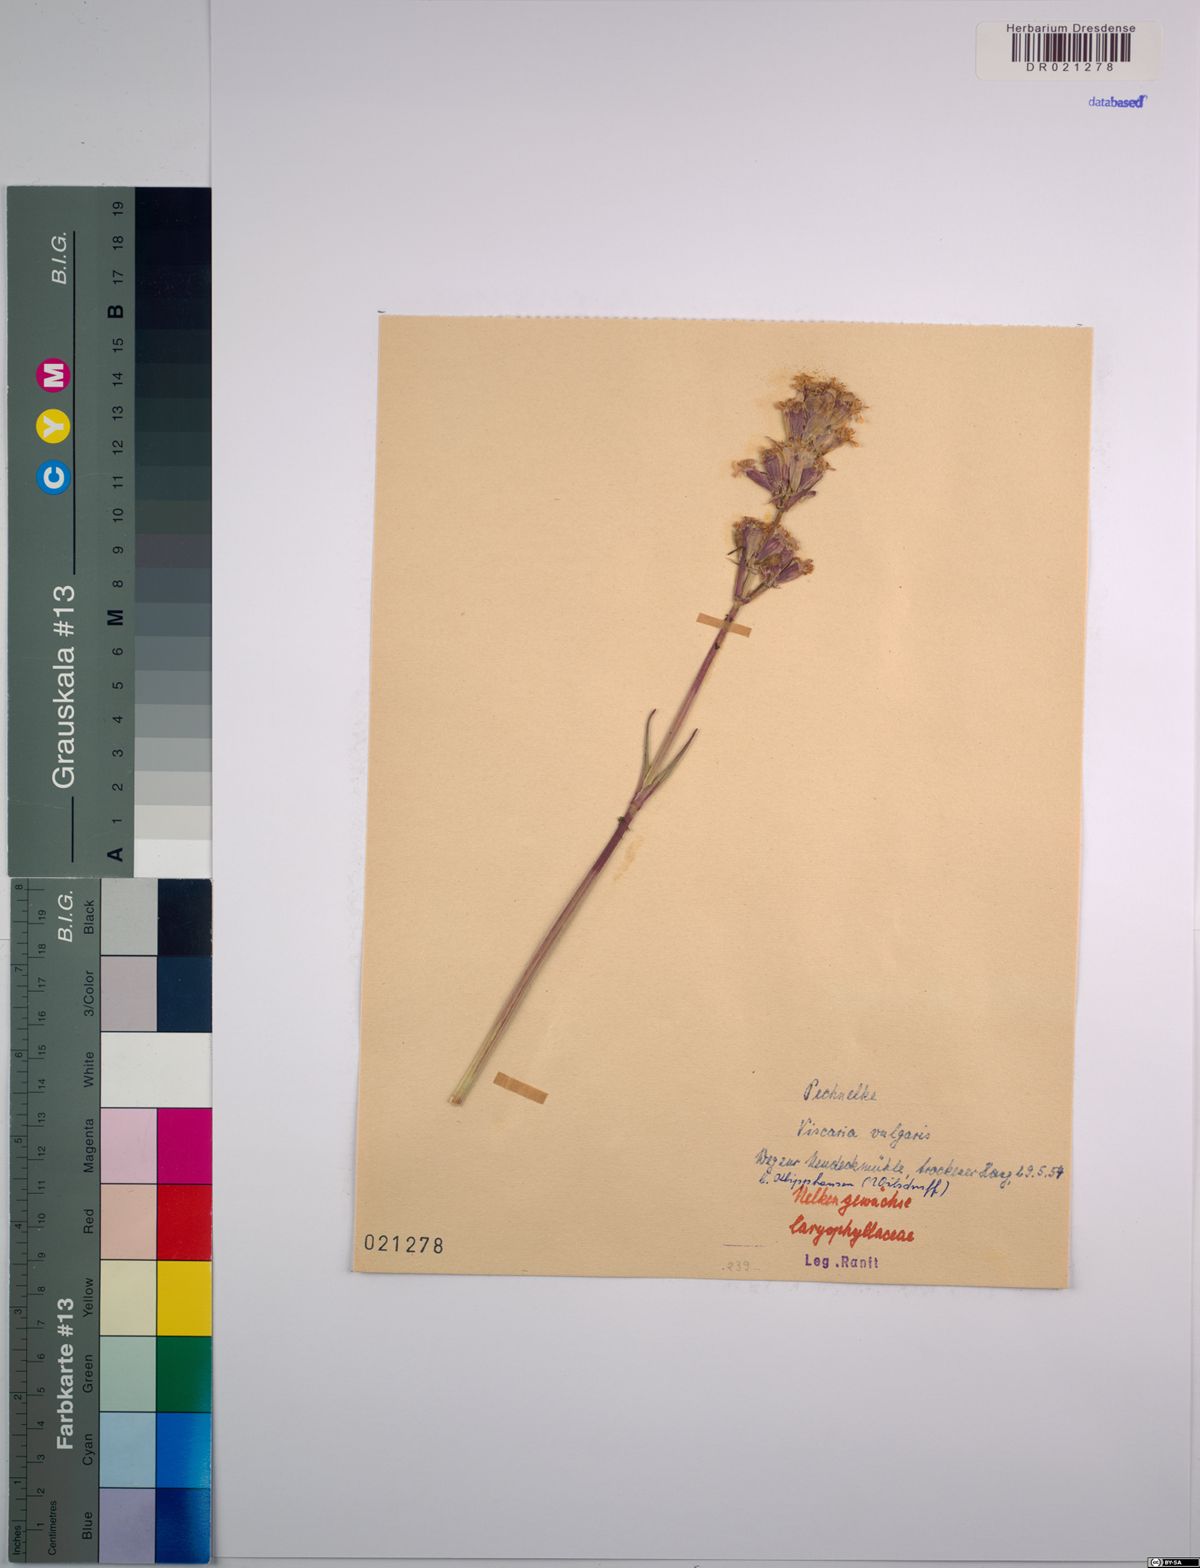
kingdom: Plantae
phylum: Tracheophyta
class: Magnoliopsida
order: Caryophyllales
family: Caryophyllaceae
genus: Viscaria
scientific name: Viscaria vulgaris
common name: Clammy campion
